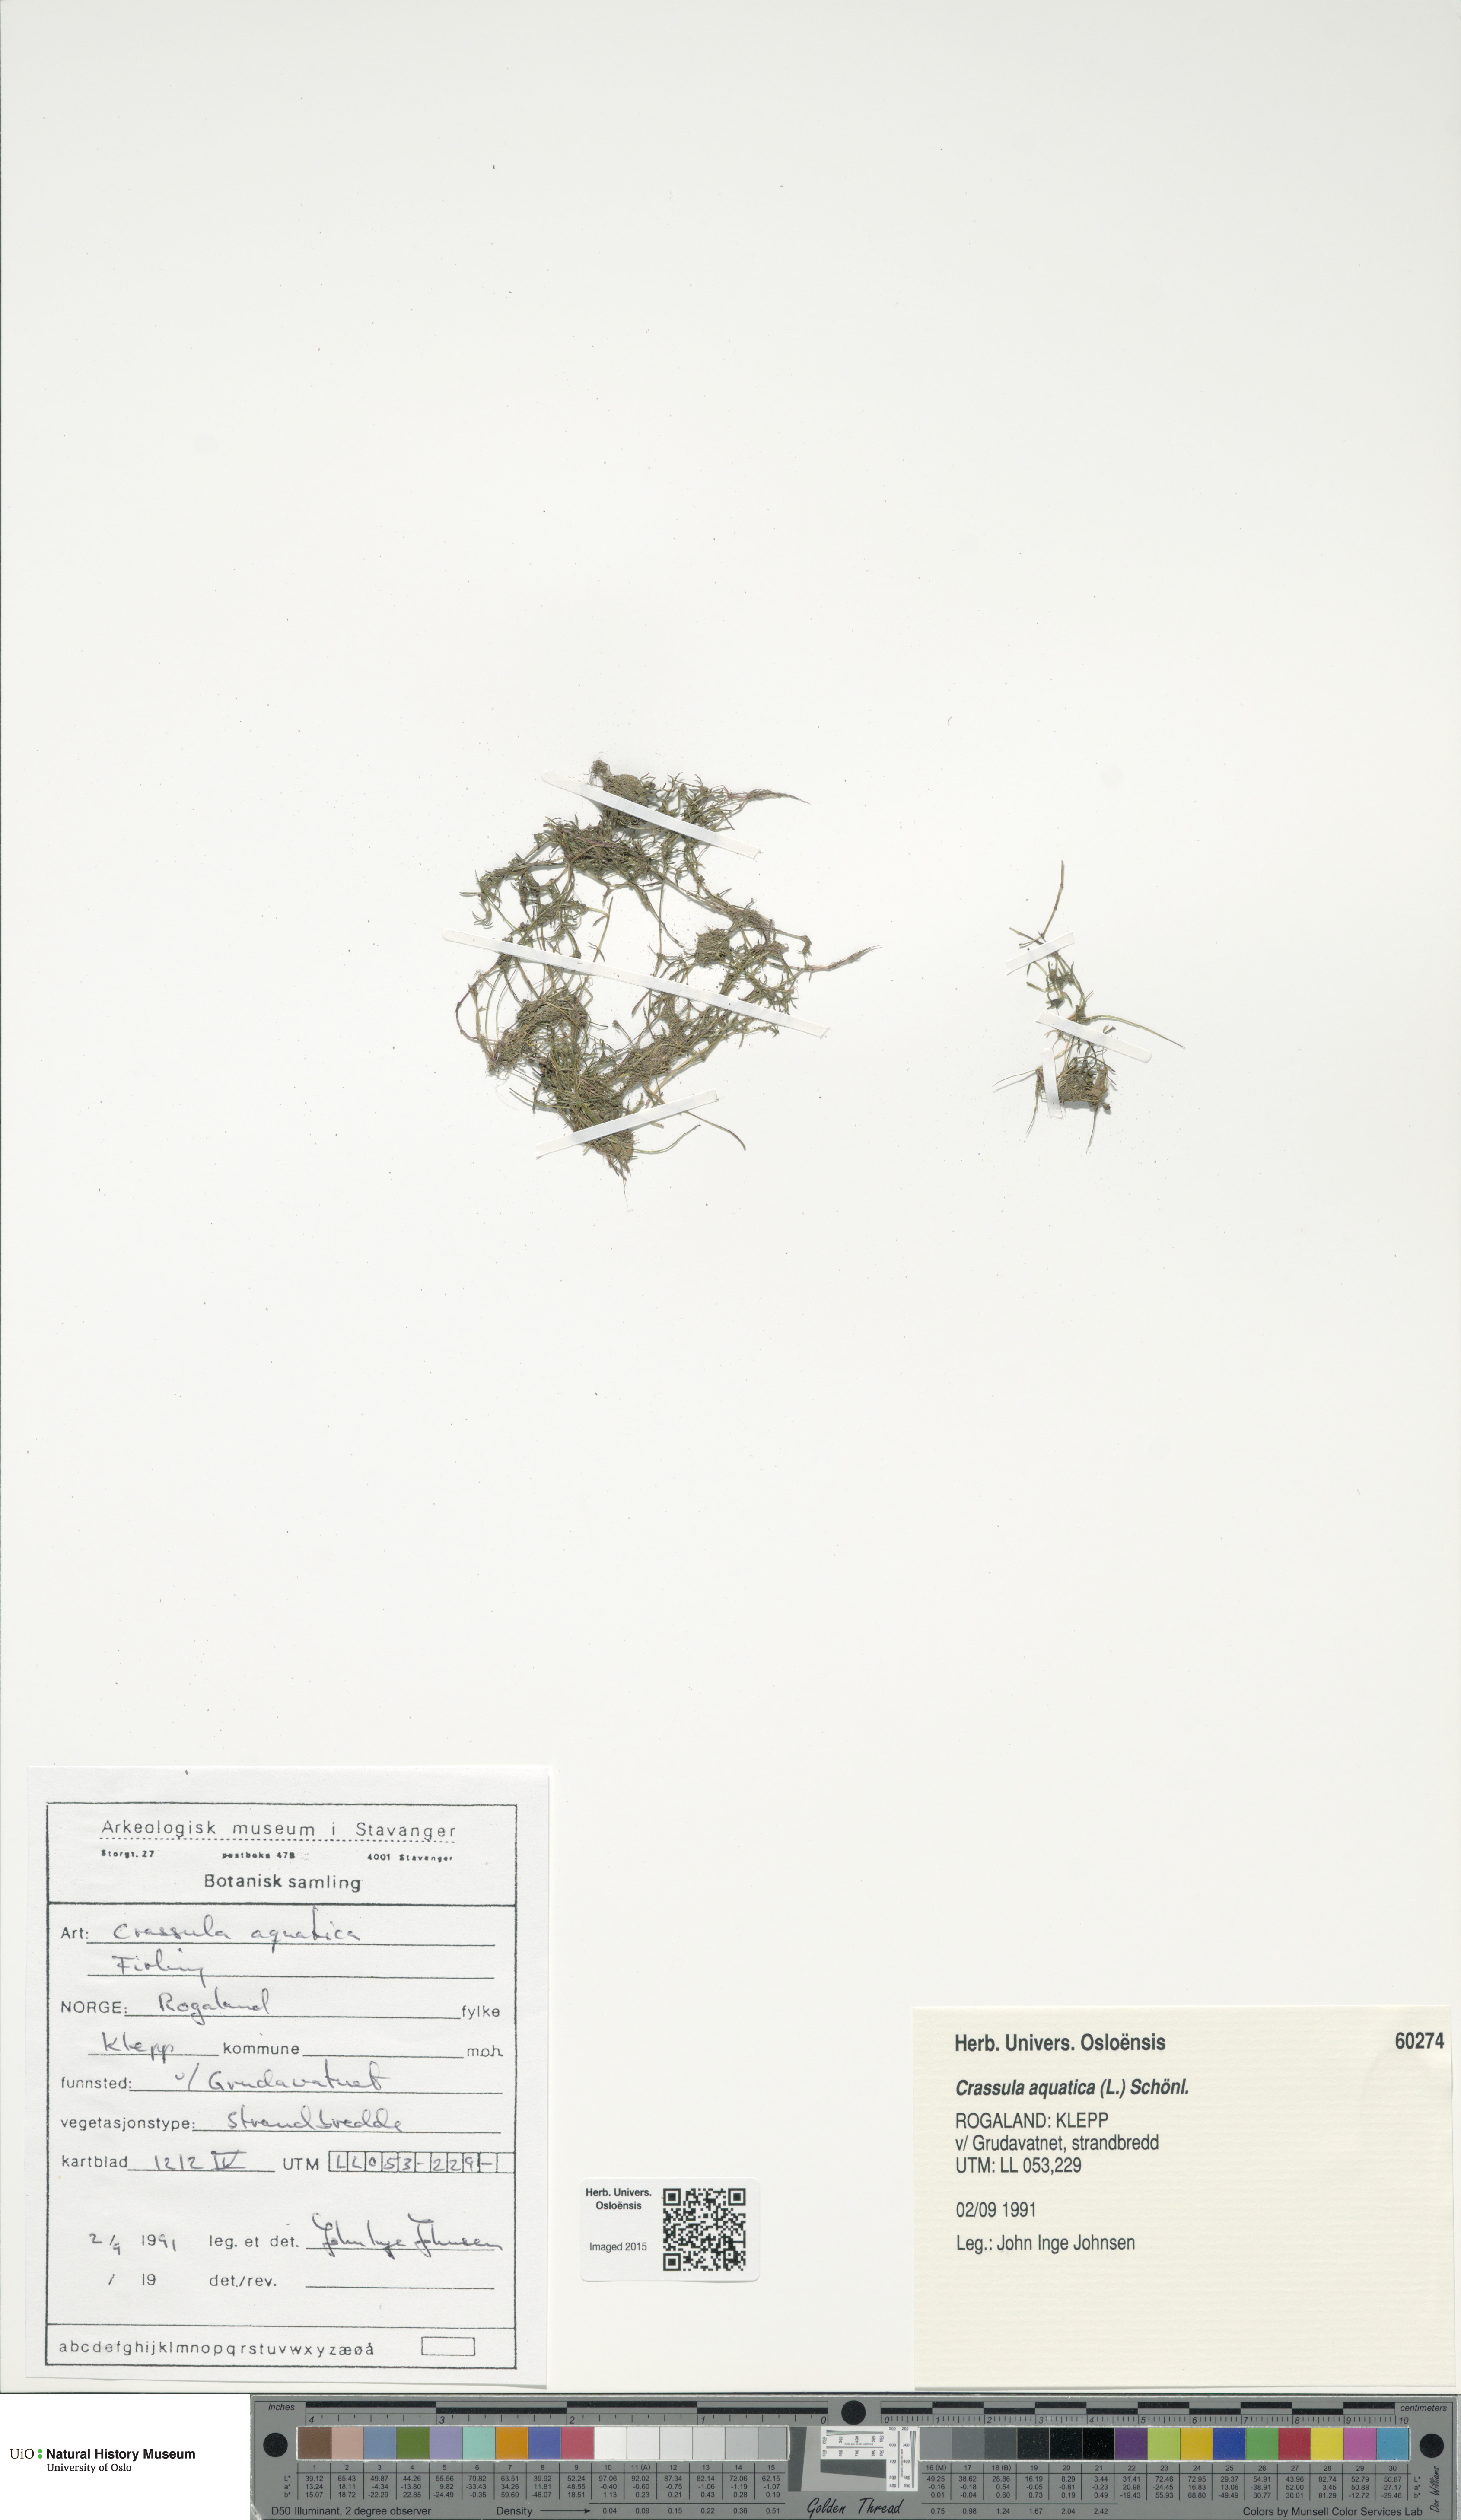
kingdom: Plantae
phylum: Tracheophyta
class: Magnoliopsida
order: Saxifragales
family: Crassulaceae
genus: Crassula
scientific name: Crassula aquatica
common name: Pigmyweed
